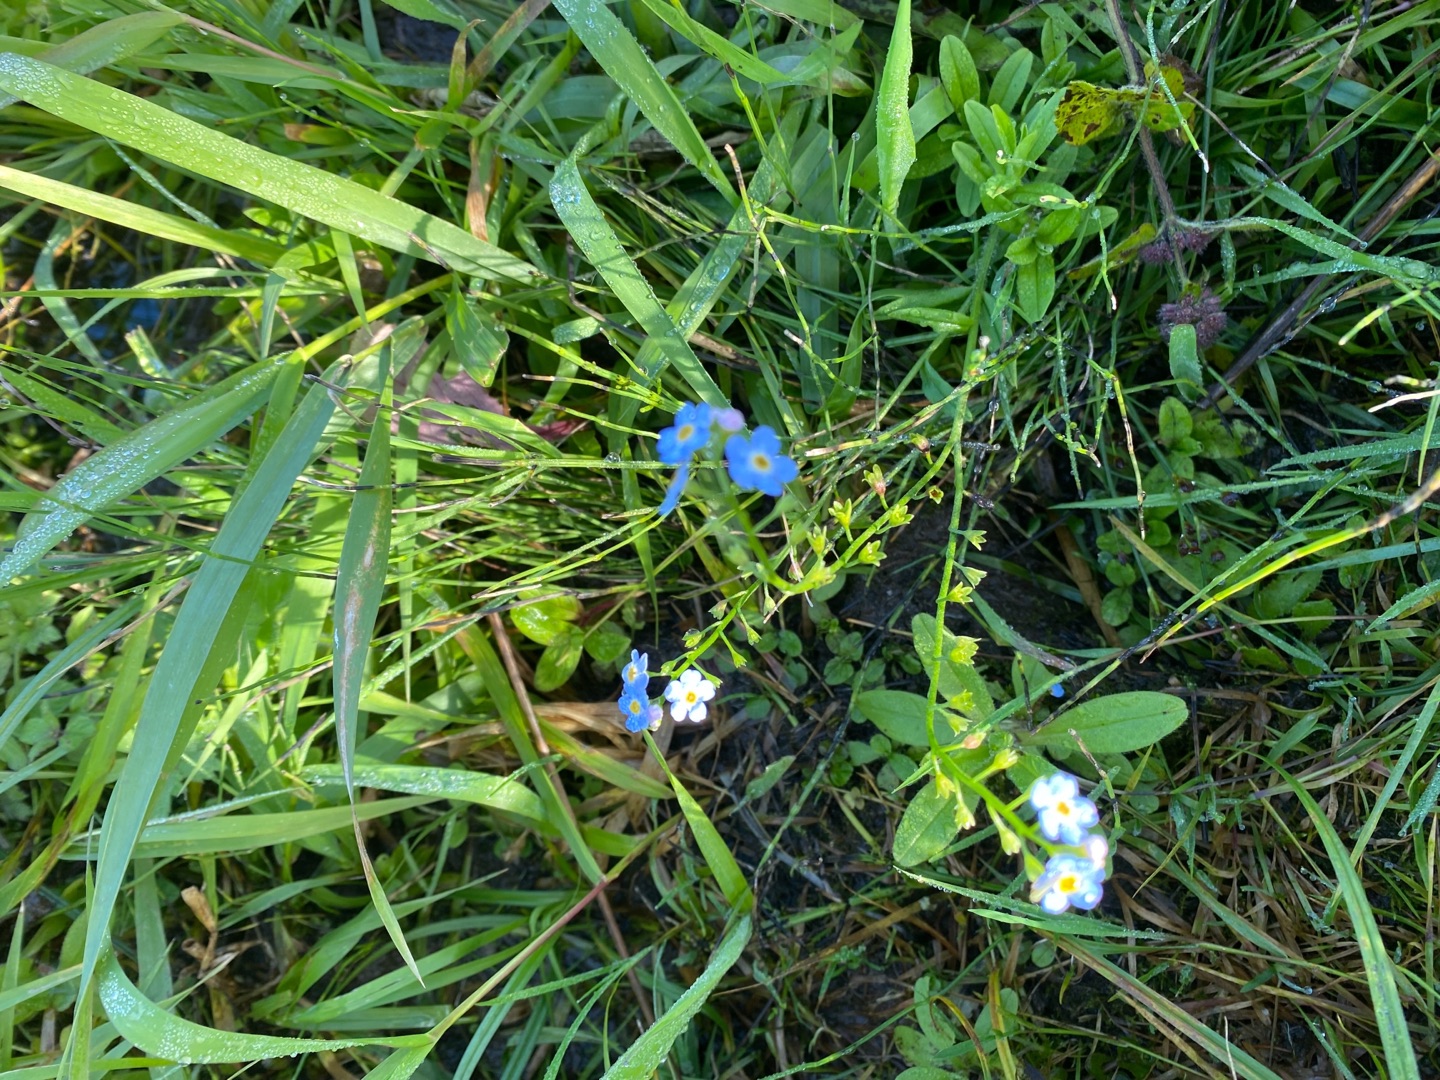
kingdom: Plantae
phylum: Tracheophyta
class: Magnoliopsida
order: Boraginales
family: Boraginaceae
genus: Myosotis
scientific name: Myosotis scorpioides
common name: Eng-forglemmigej
